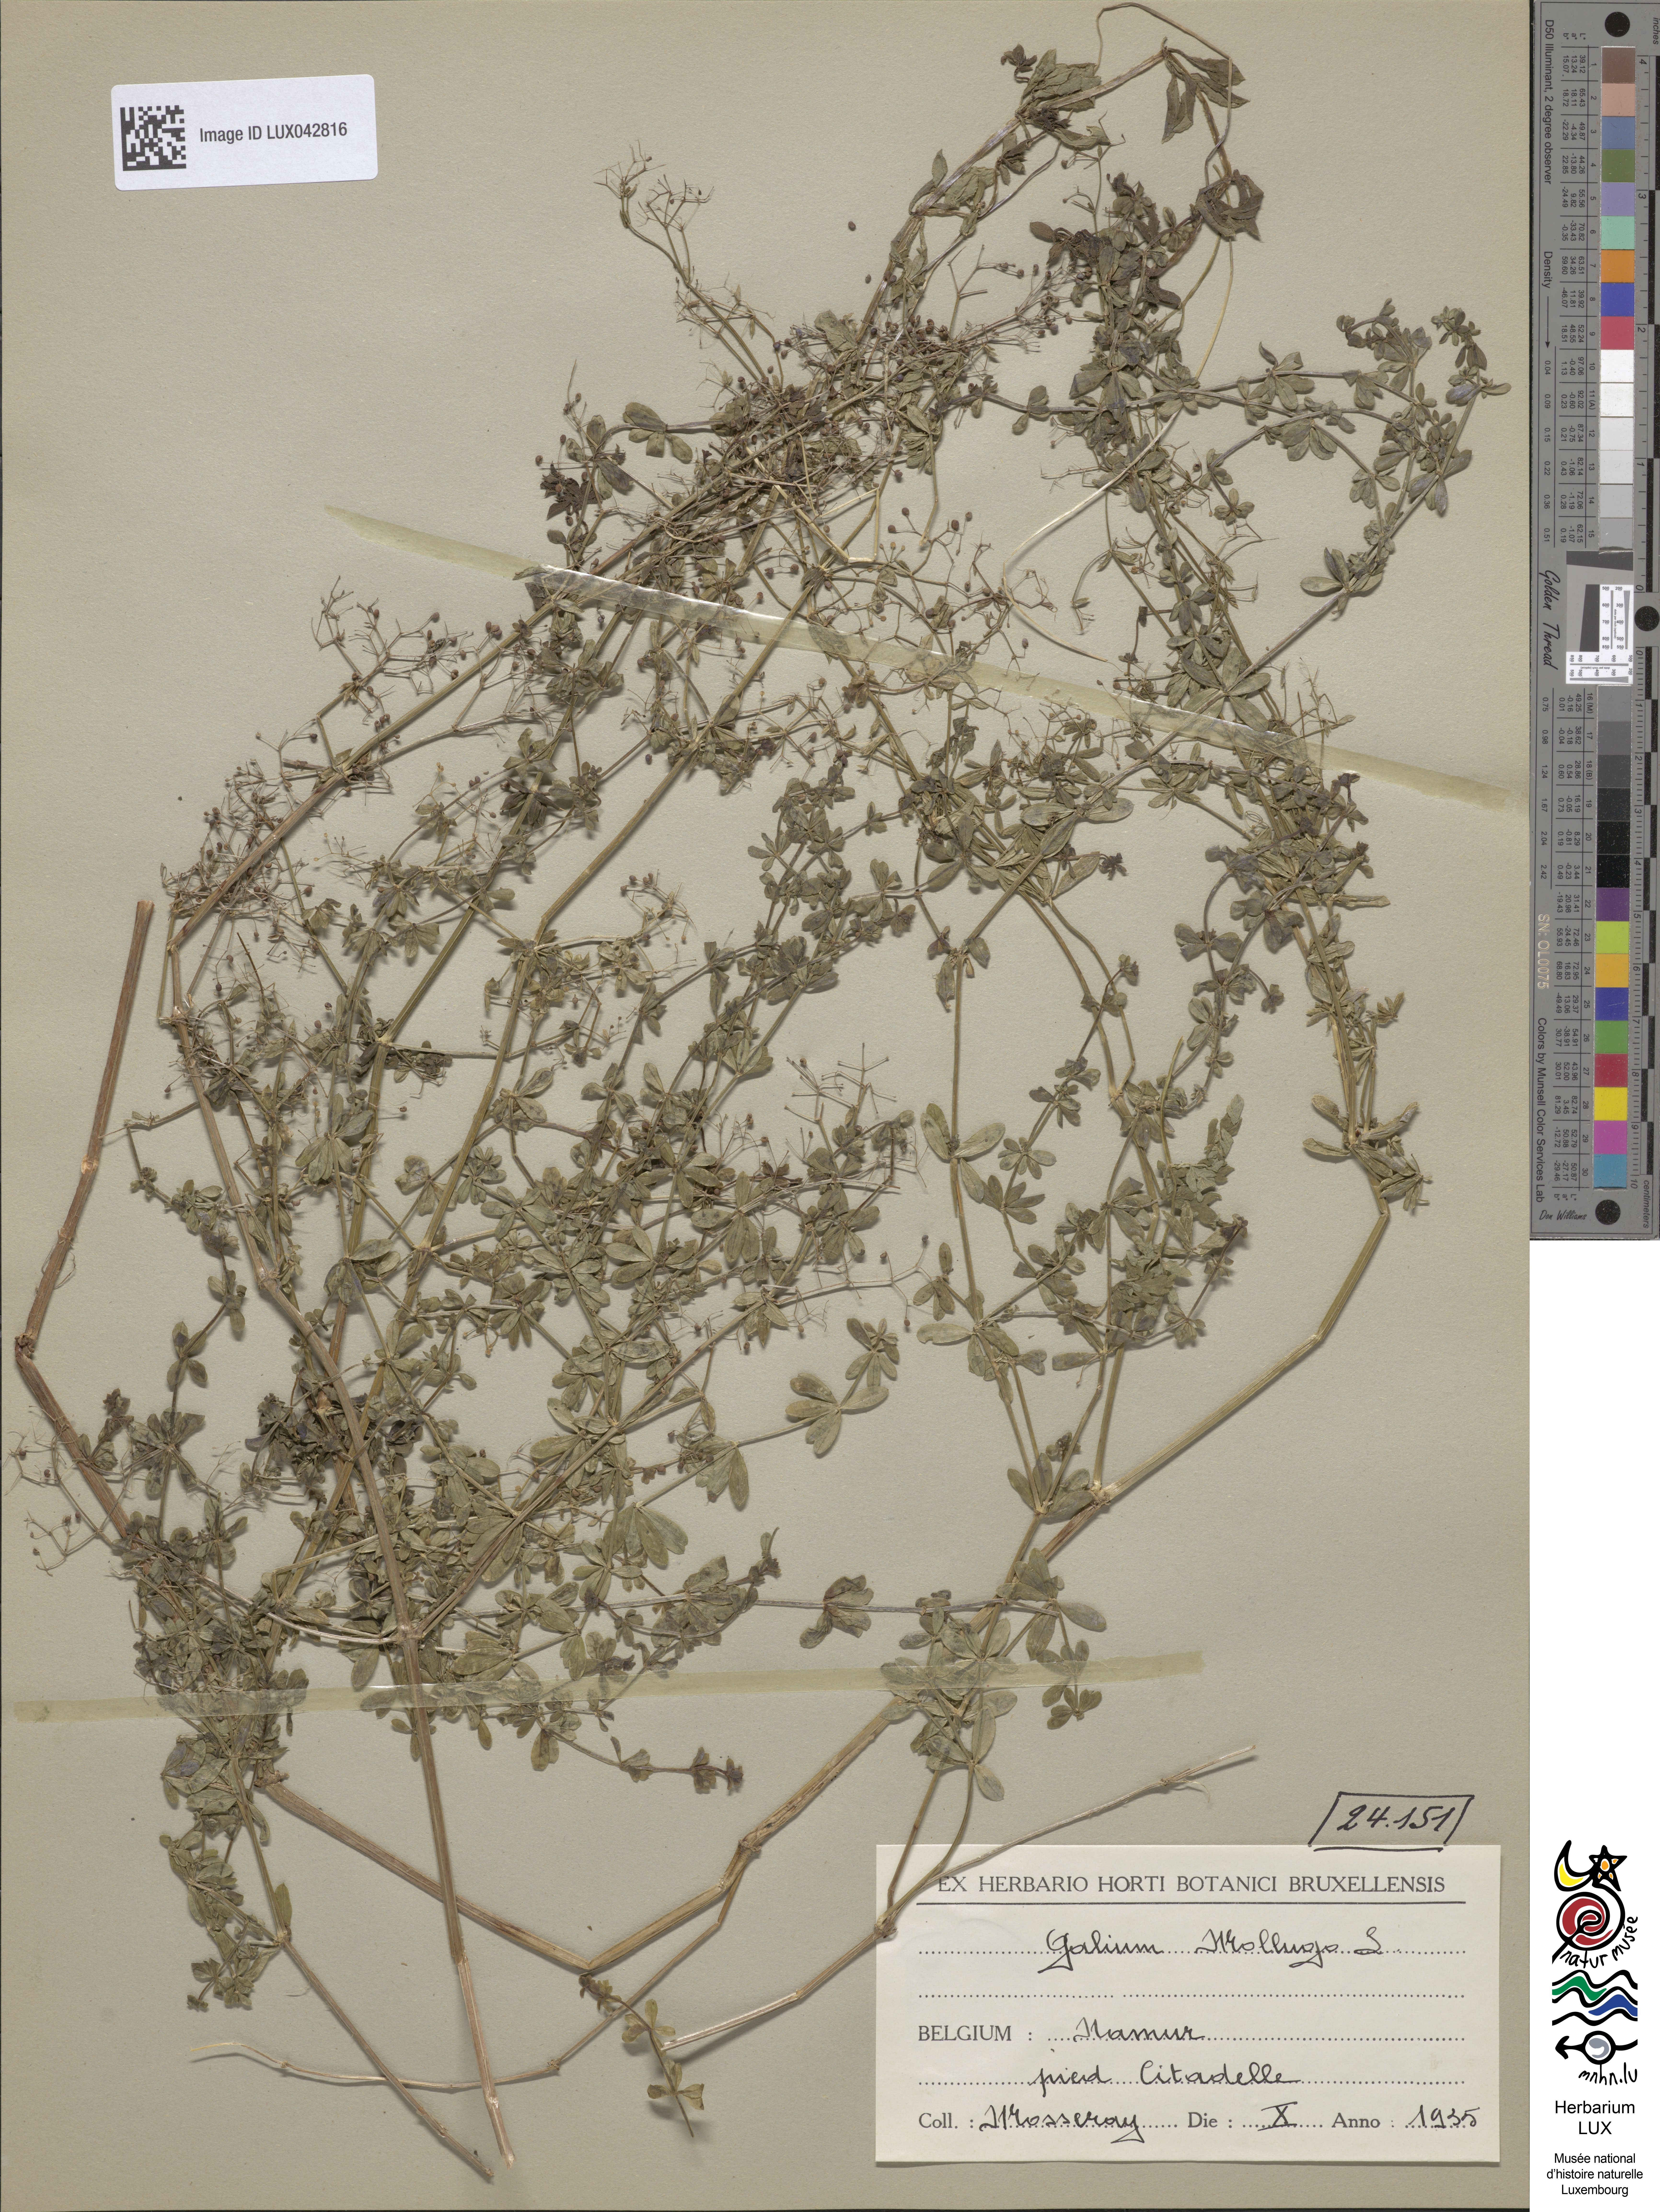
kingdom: Plantae
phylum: Tracheophyta
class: Magnoliopsida
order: Gentianales
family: Rubiaceae
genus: Galium
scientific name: Galium mollugo
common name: Hedge bedstraw
